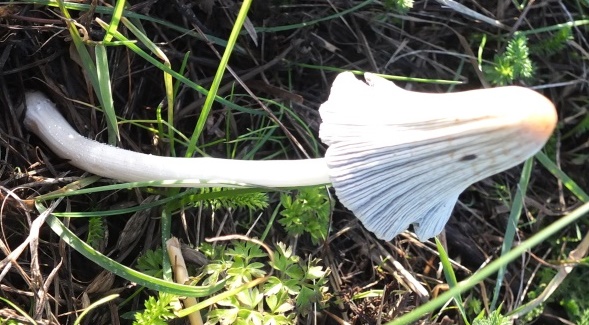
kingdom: Fungi
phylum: Basidiomycota
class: Agaricomycetes
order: Agaricales
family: Psathyrellaceae
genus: Coprinellus
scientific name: Coprinellus flocculosus
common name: fnugget blækhat
